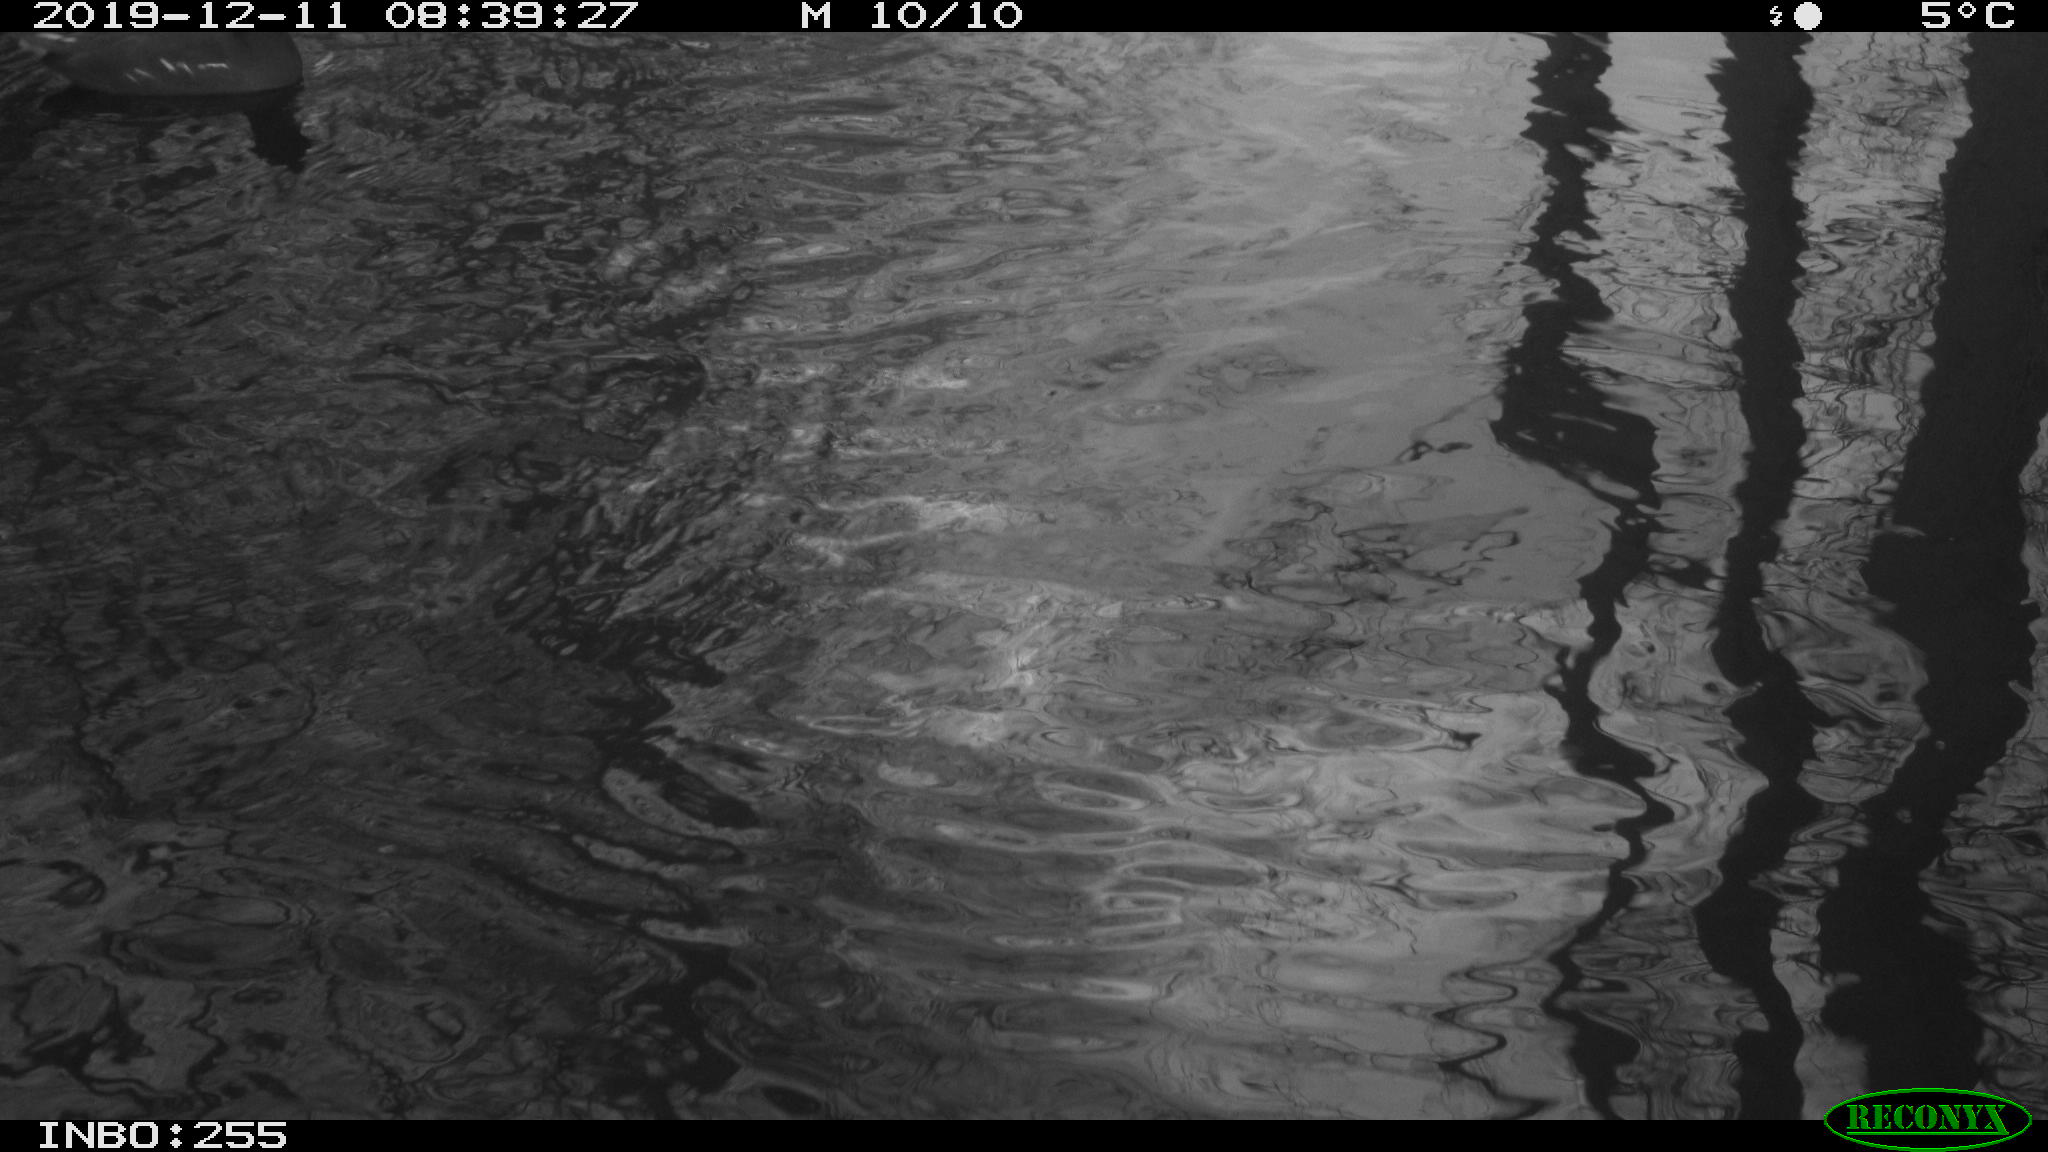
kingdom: Animalia
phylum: Chordata
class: Aves
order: Gruiformes
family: Rallidae
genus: Gallinula
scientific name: Gallinula chloropus
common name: Common moorhen
